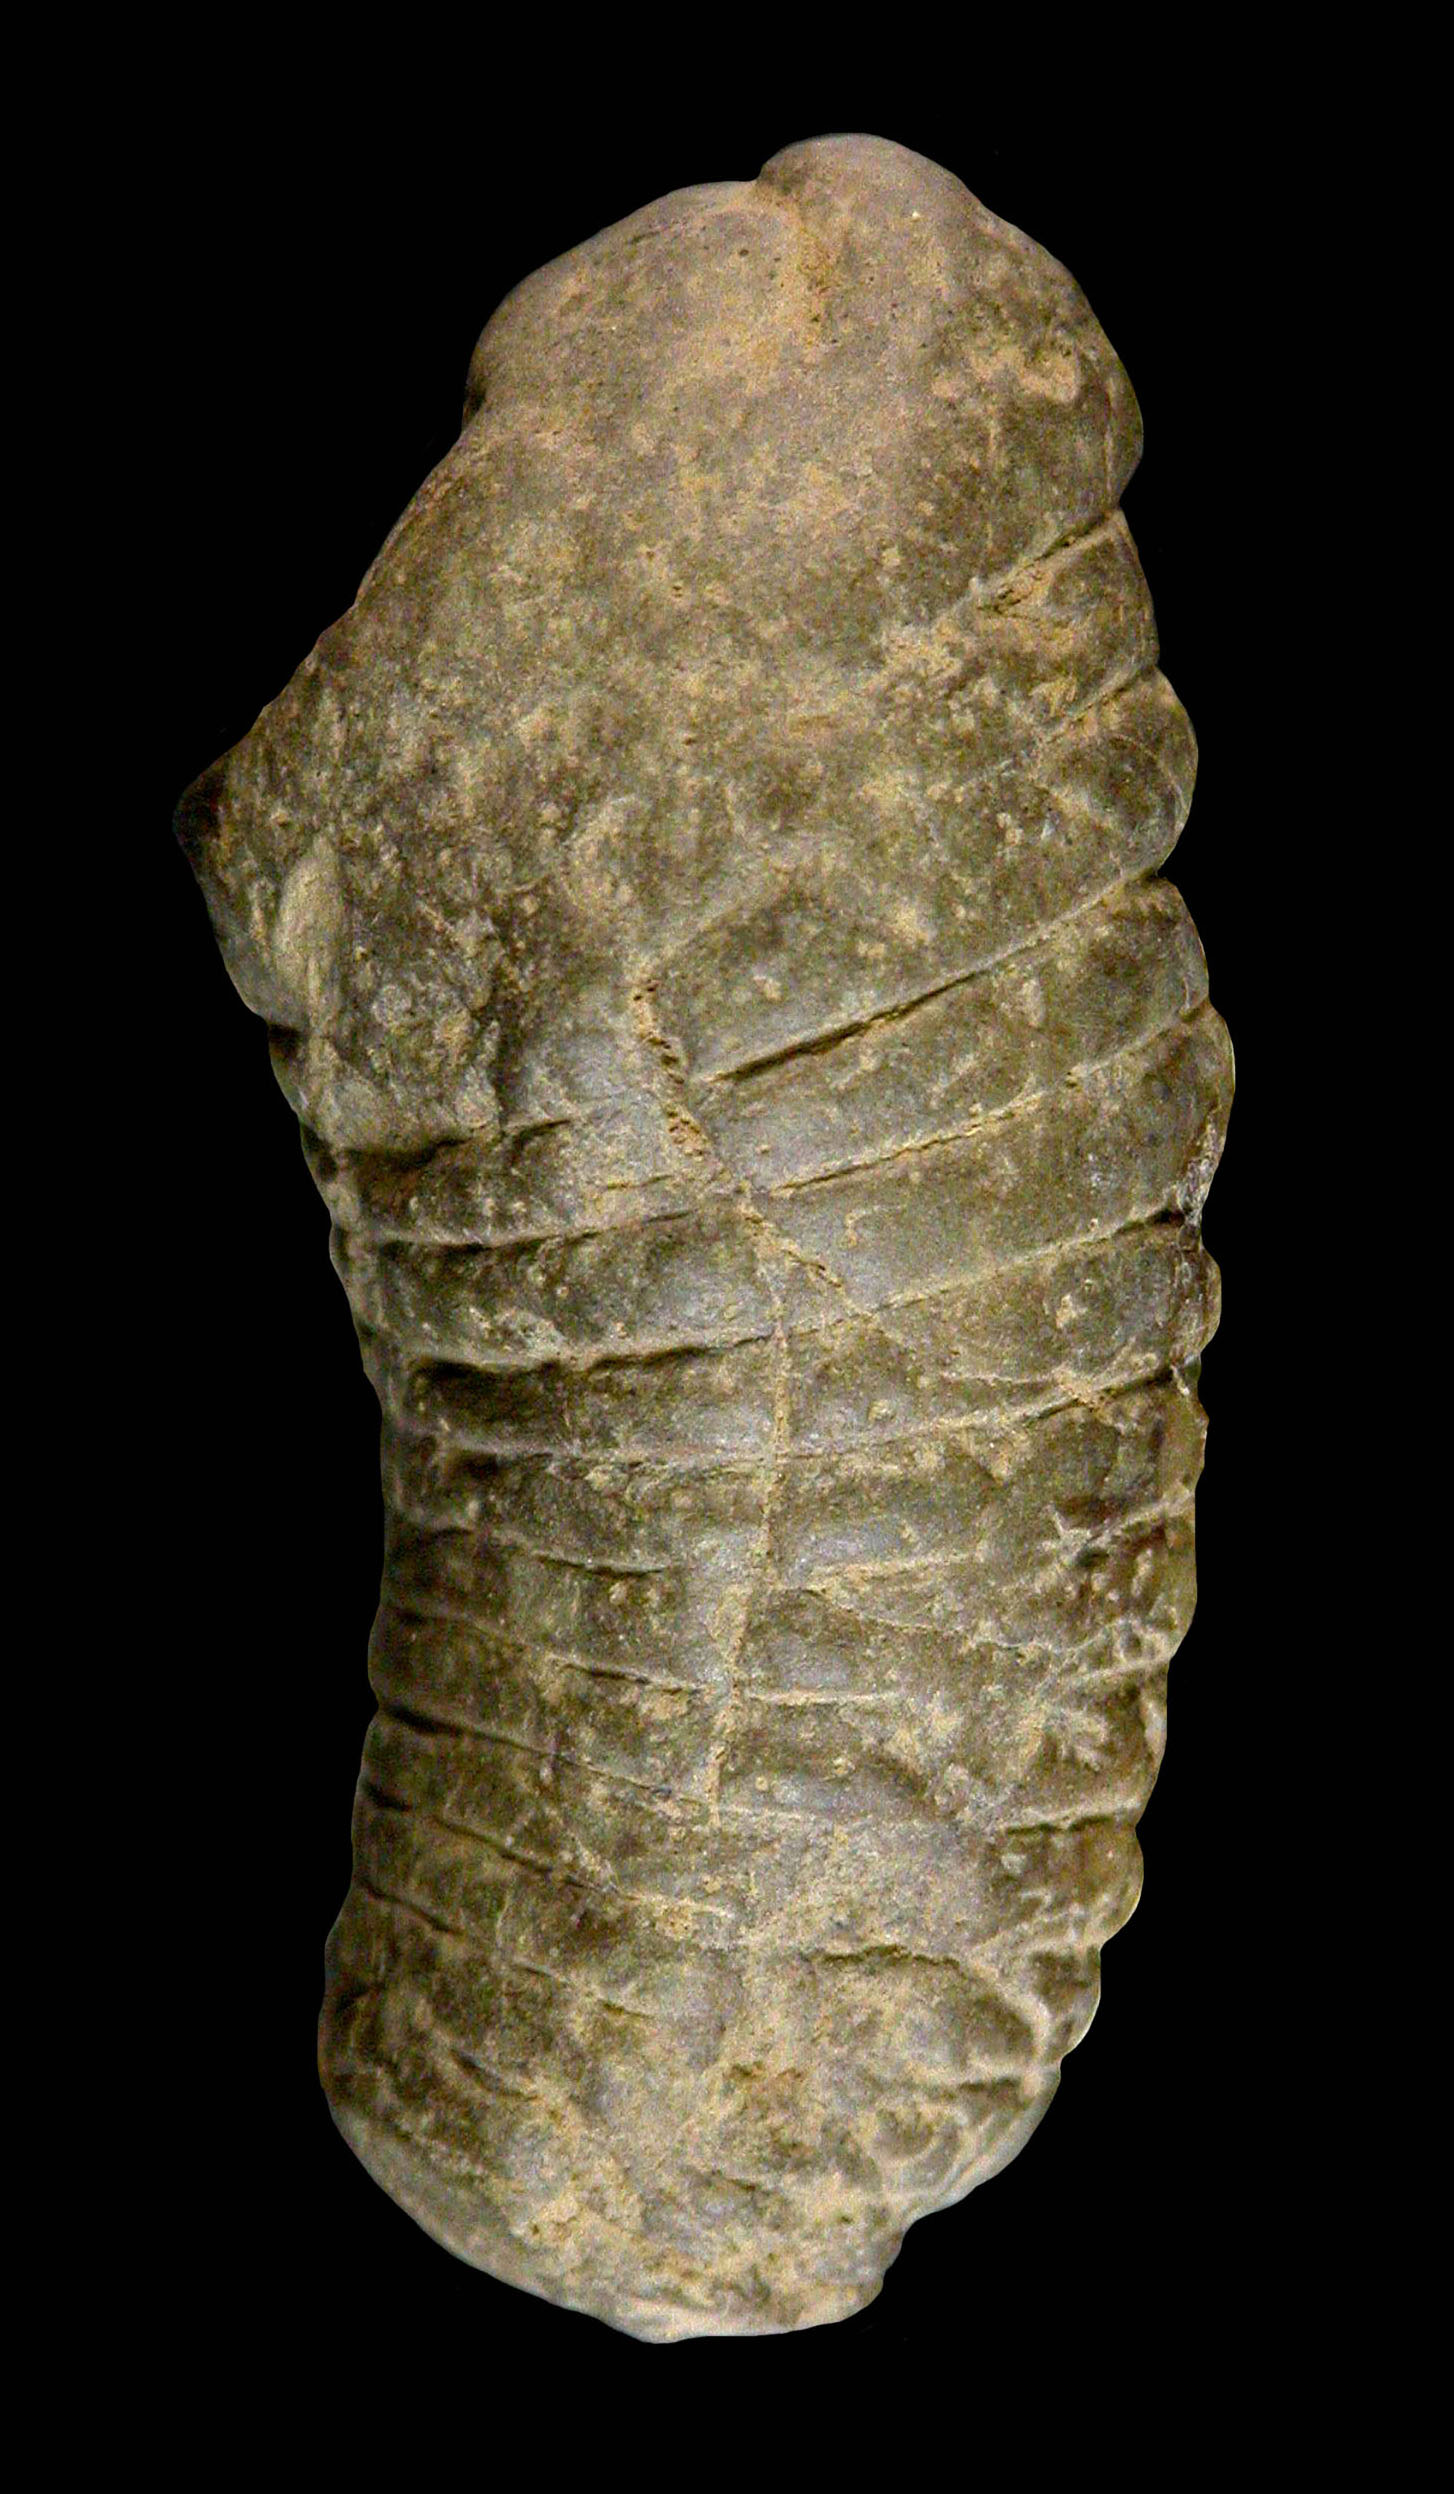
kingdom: Animalia
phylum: Mollusca
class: Cephalopoda
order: Nautilida
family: Nautilidae
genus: Cyrtoceras
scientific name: Cyrtoceras
